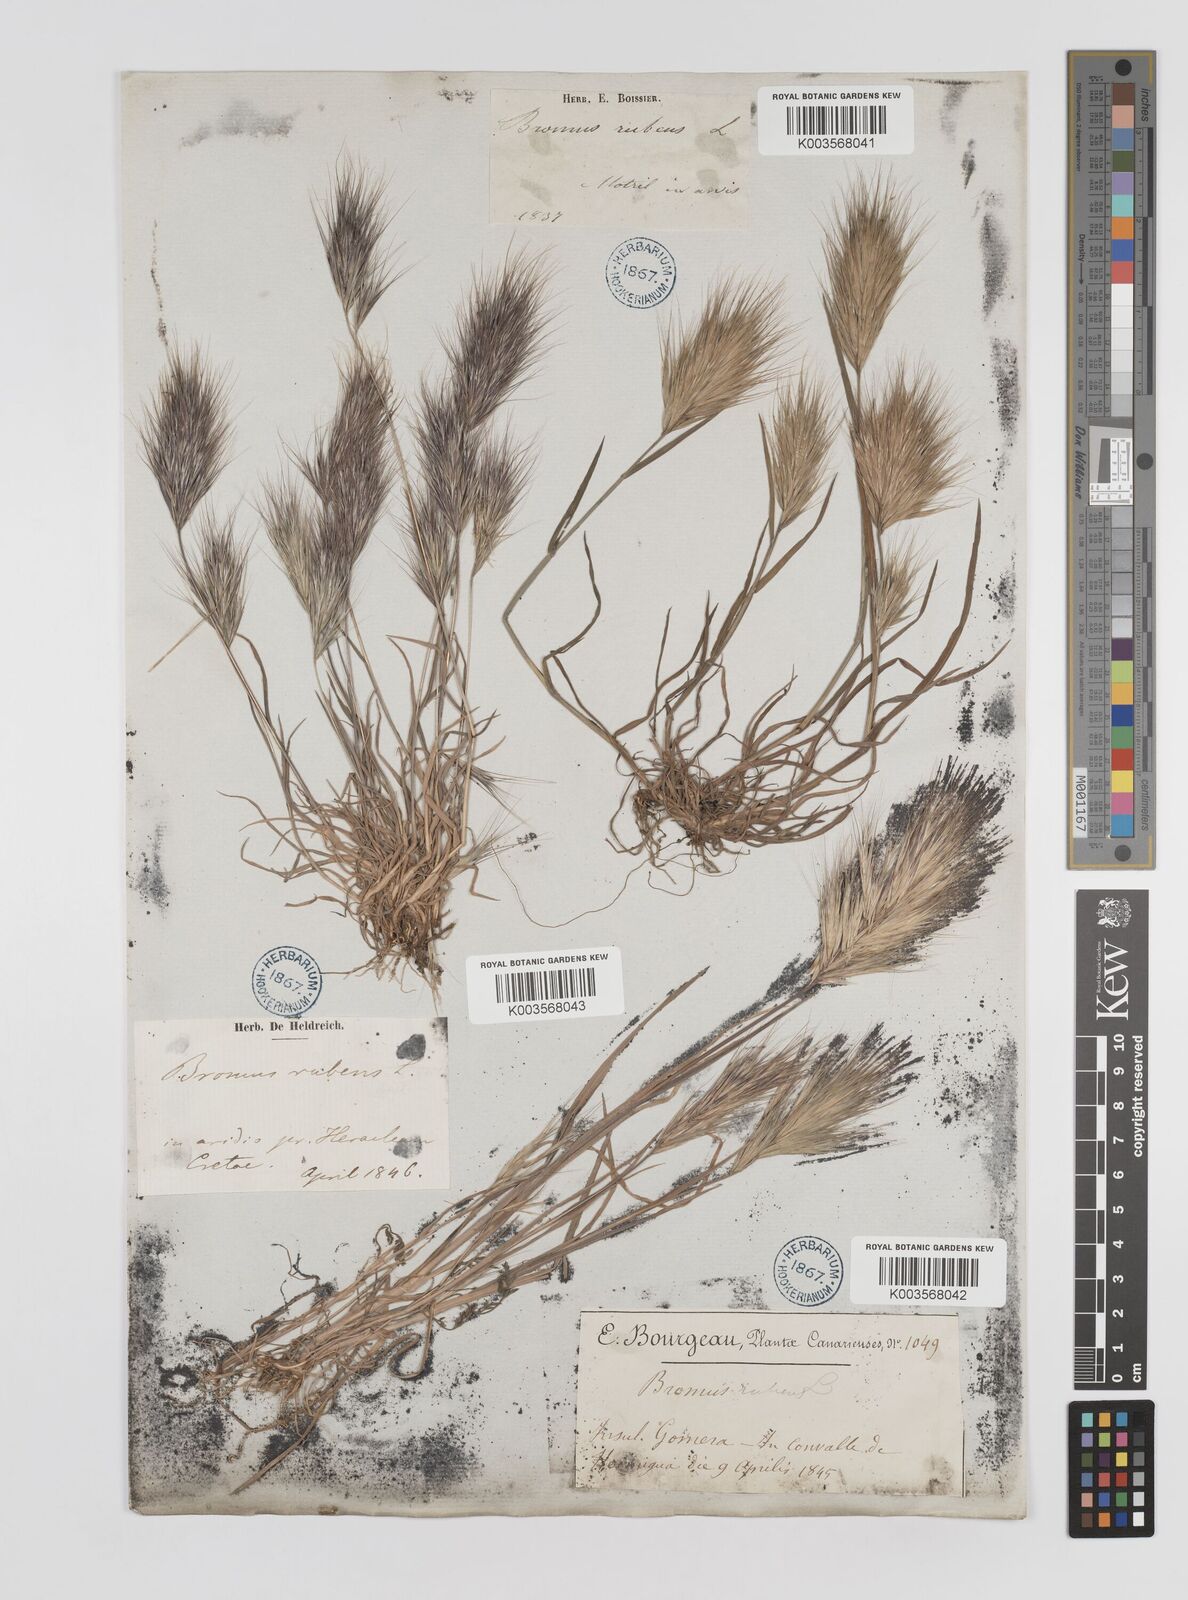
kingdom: Plantae
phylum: Tracheophyta
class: Liliopsida
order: Poales
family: Poaceae
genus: Bromus
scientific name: Bromus
